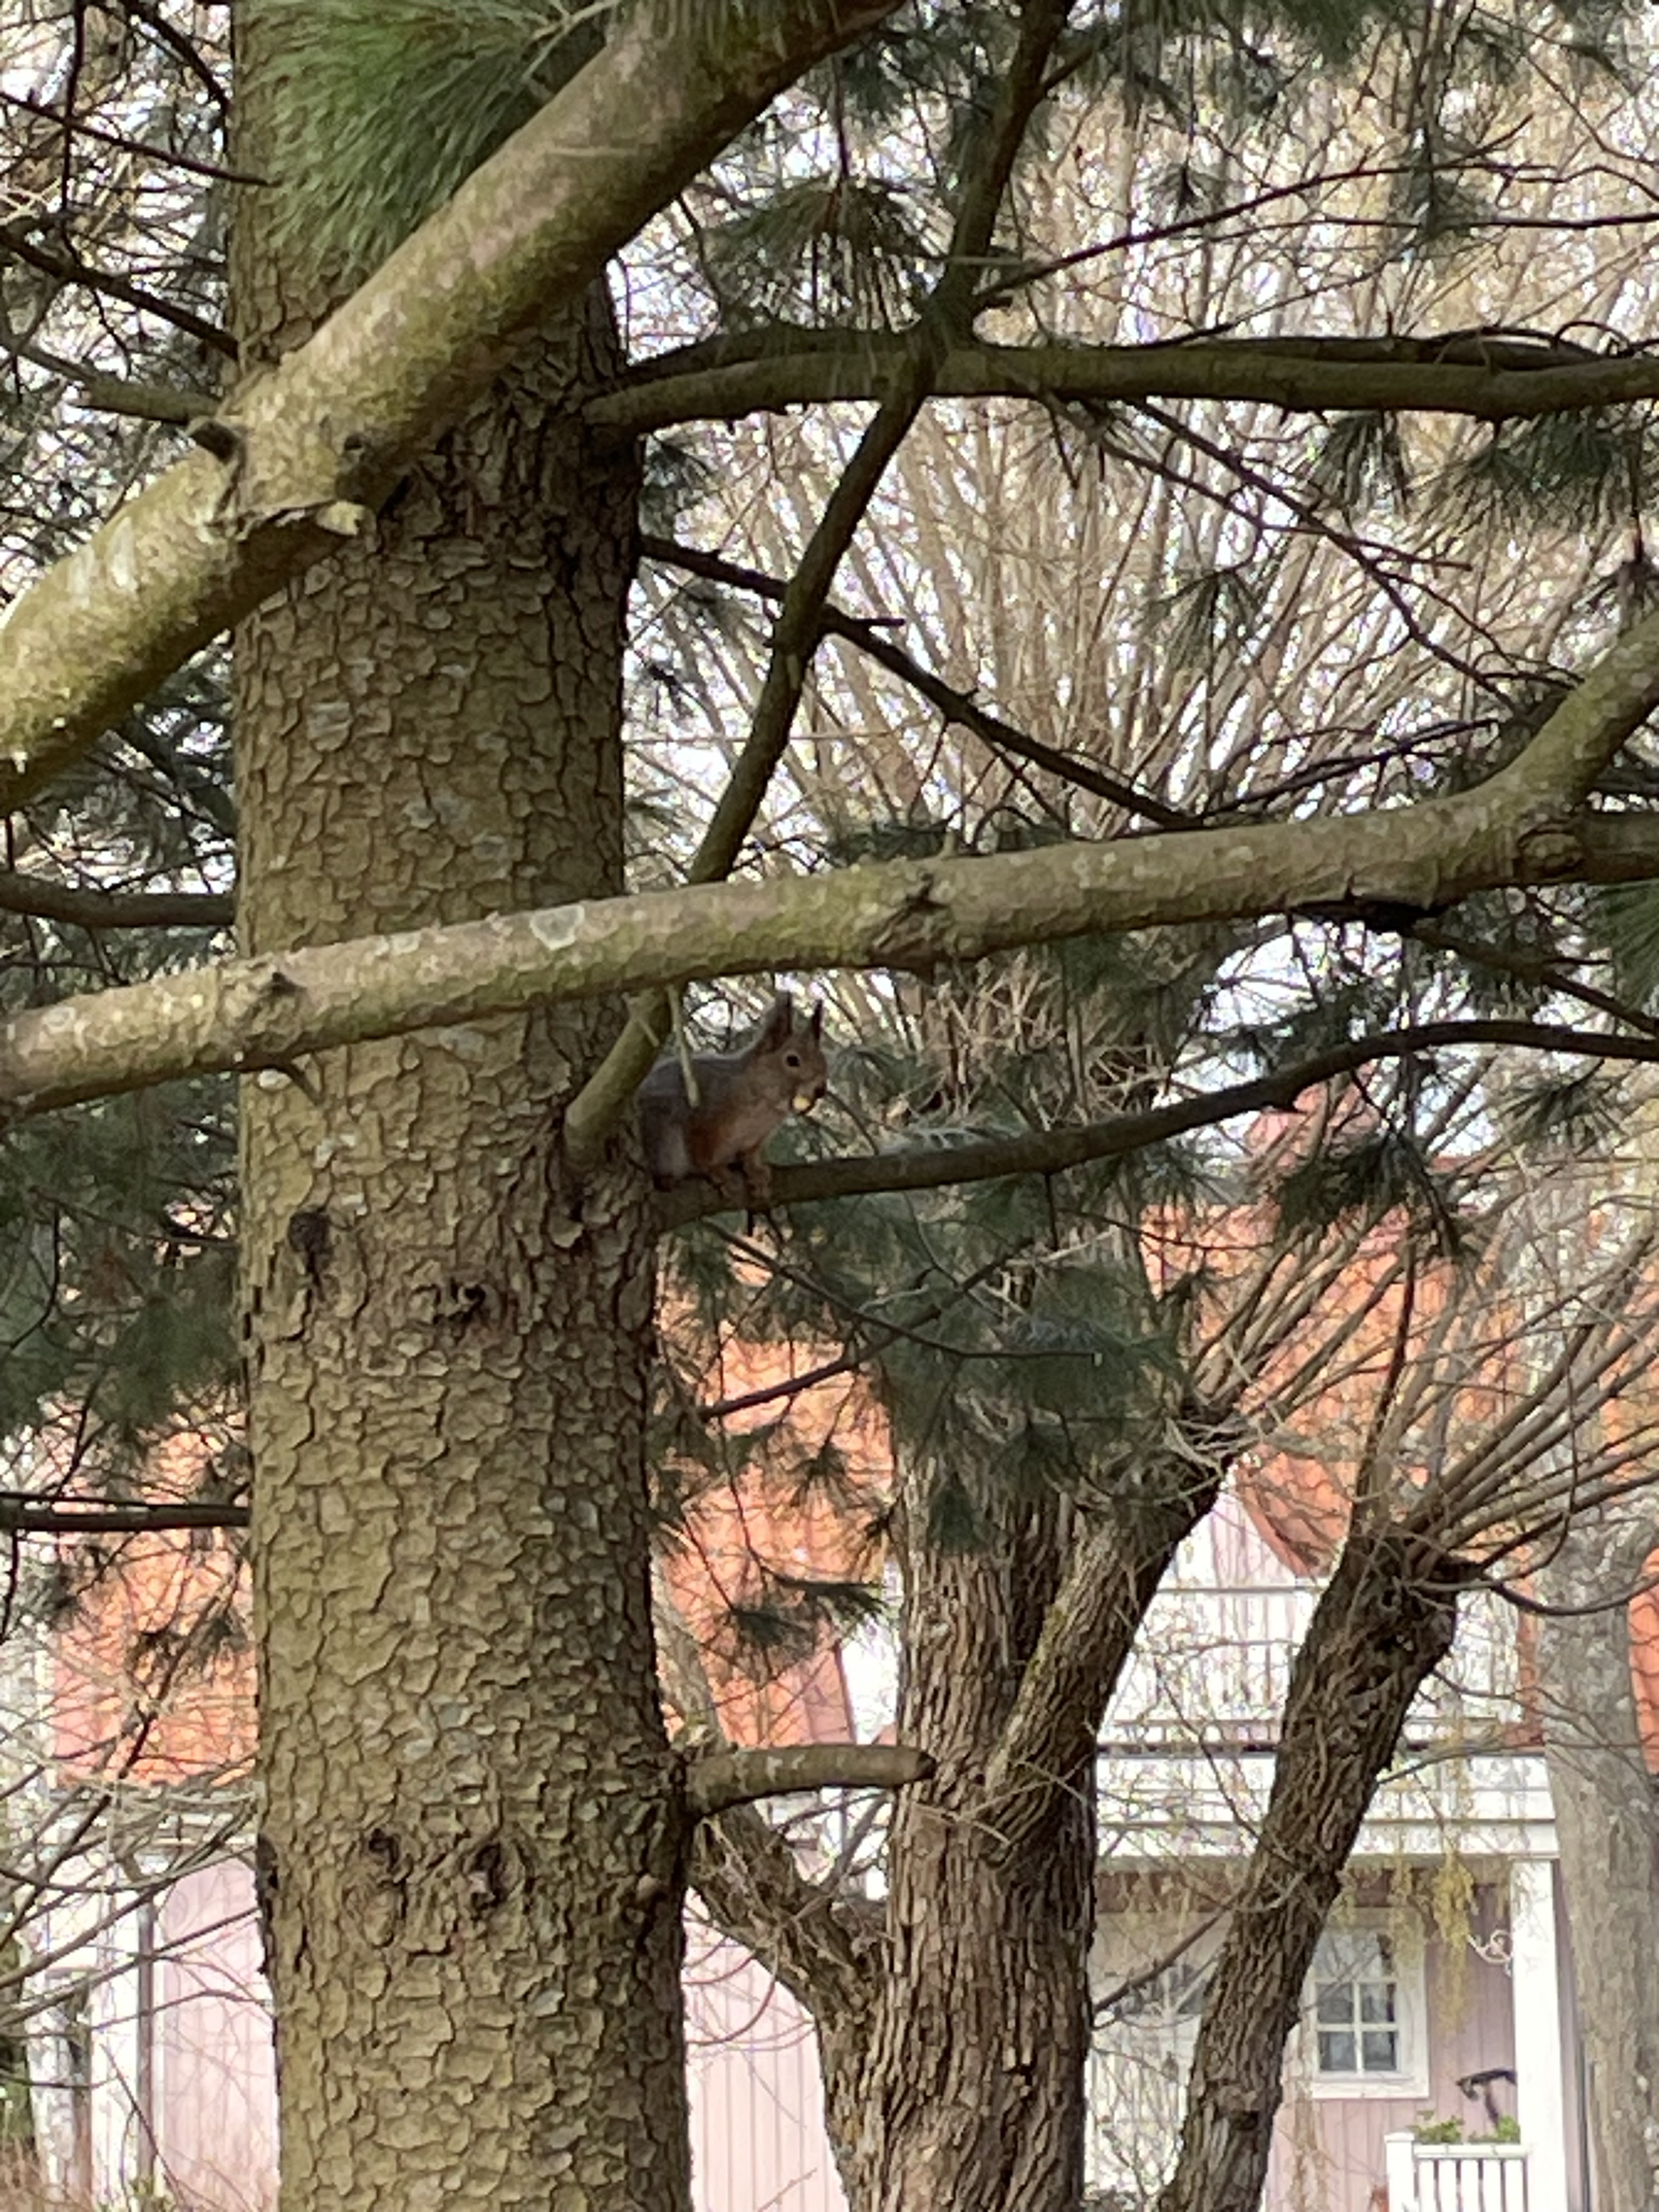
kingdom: Animalia
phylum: Chordata
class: Mammalia
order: Rodentia
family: Sciuridae
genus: Sciurus
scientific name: Sciurus vulgaris
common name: Eurasian red squirrel
